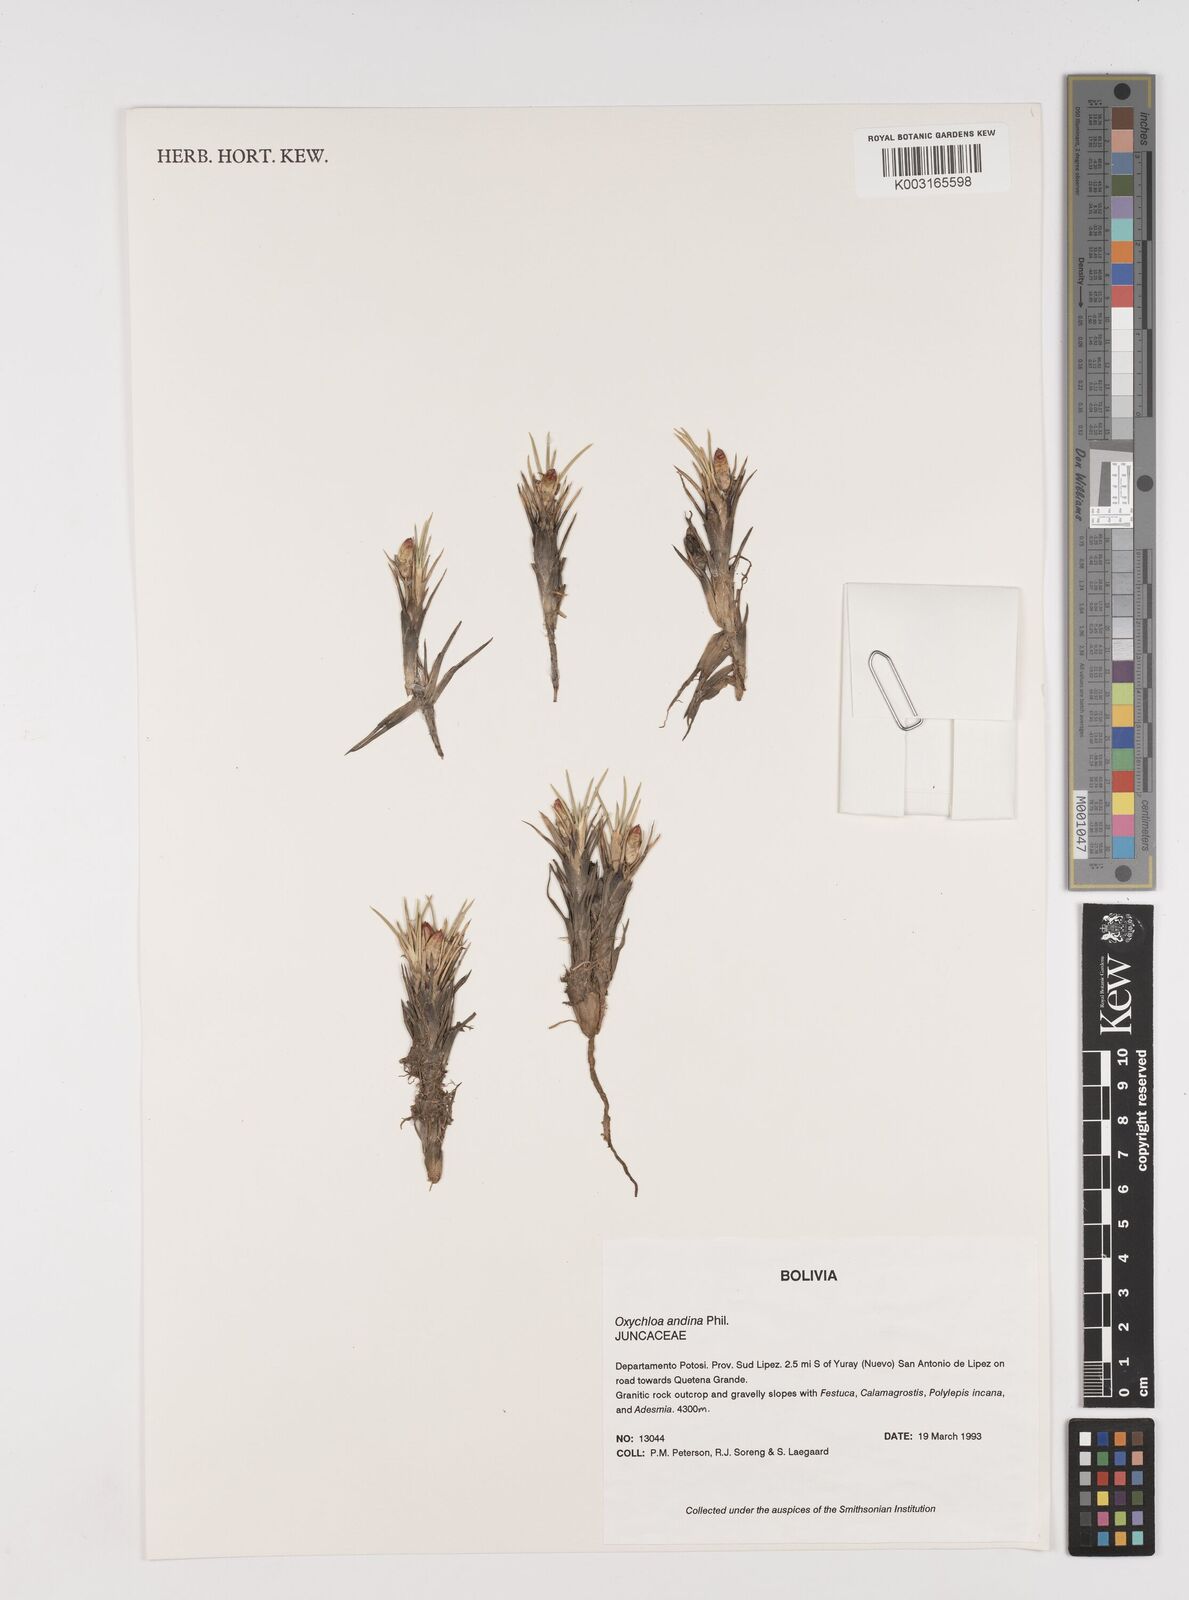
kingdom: Plantae
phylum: Tracheophyta
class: Liliopsida
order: Poales
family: Juncaceae
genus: Oxychloe
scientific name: Oxychloe andina
